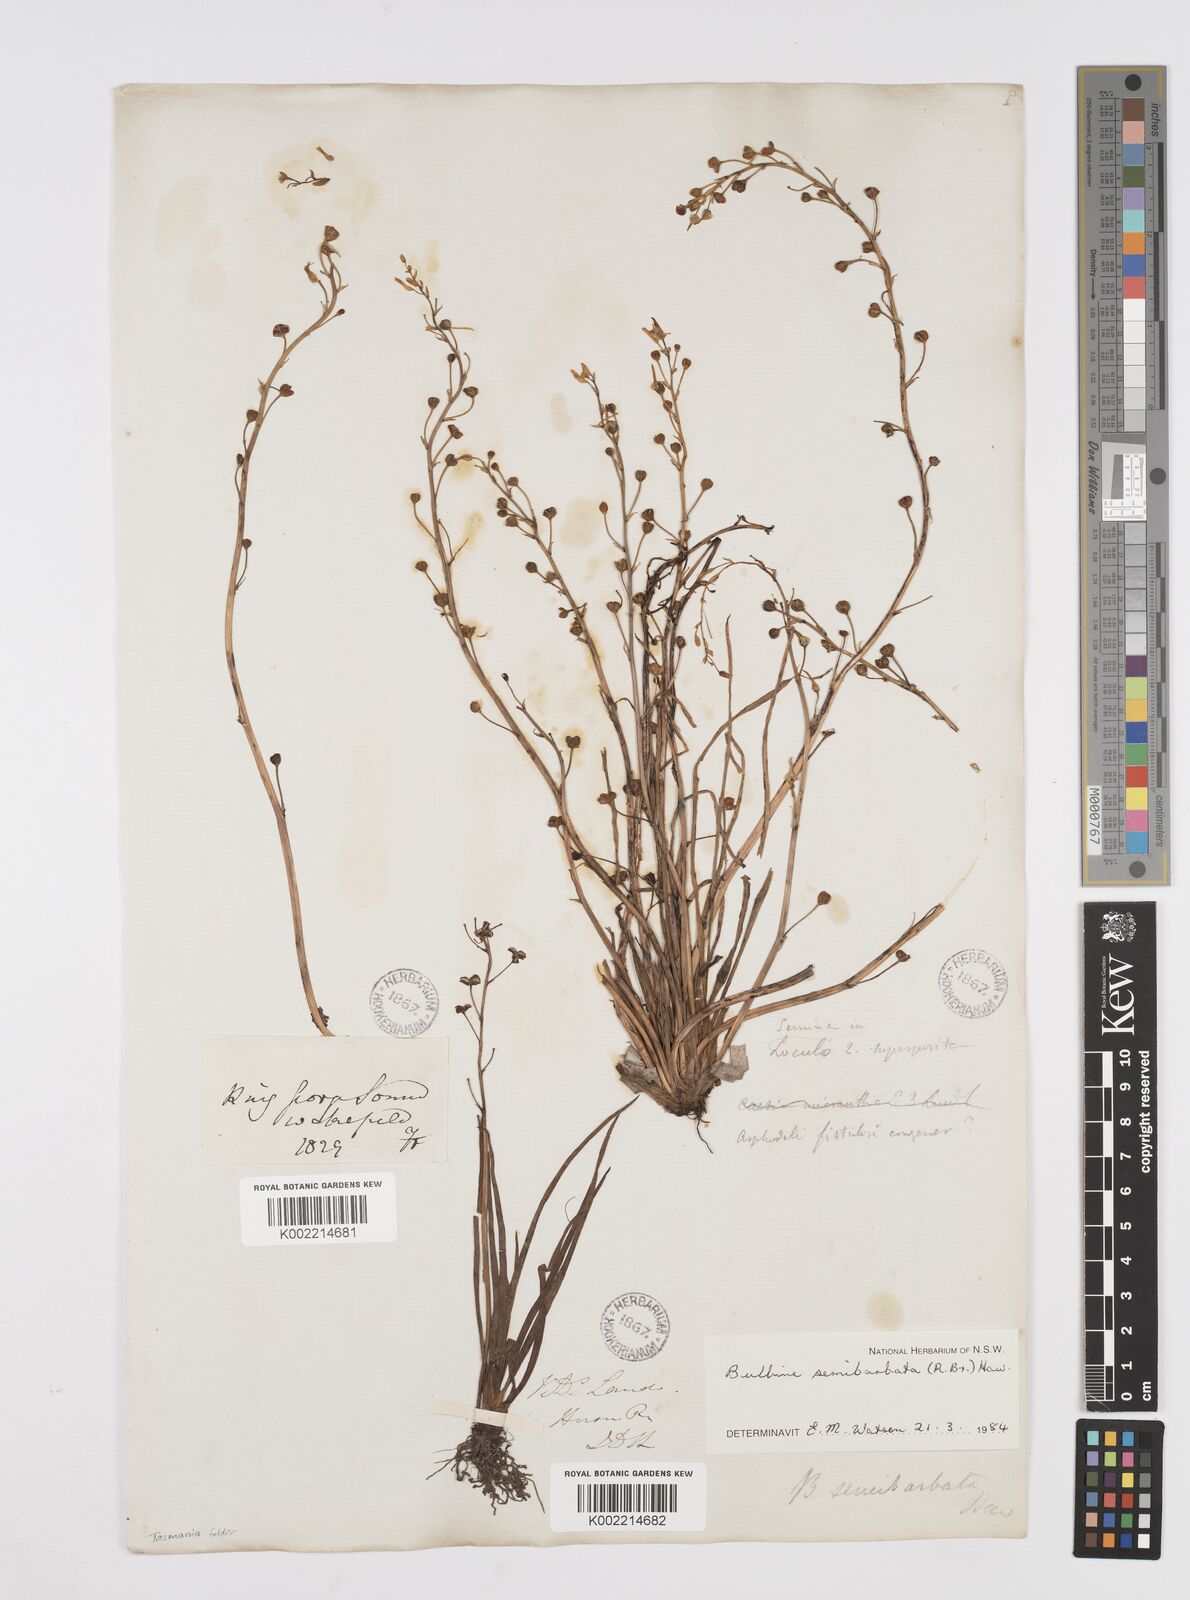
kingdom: Plantae
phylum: Tracheophyta
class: Liliopsida
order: Asparagales
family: Asphodelaceae
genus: Bulbine
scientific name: Bulbine semibarbata
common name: Leek lily
